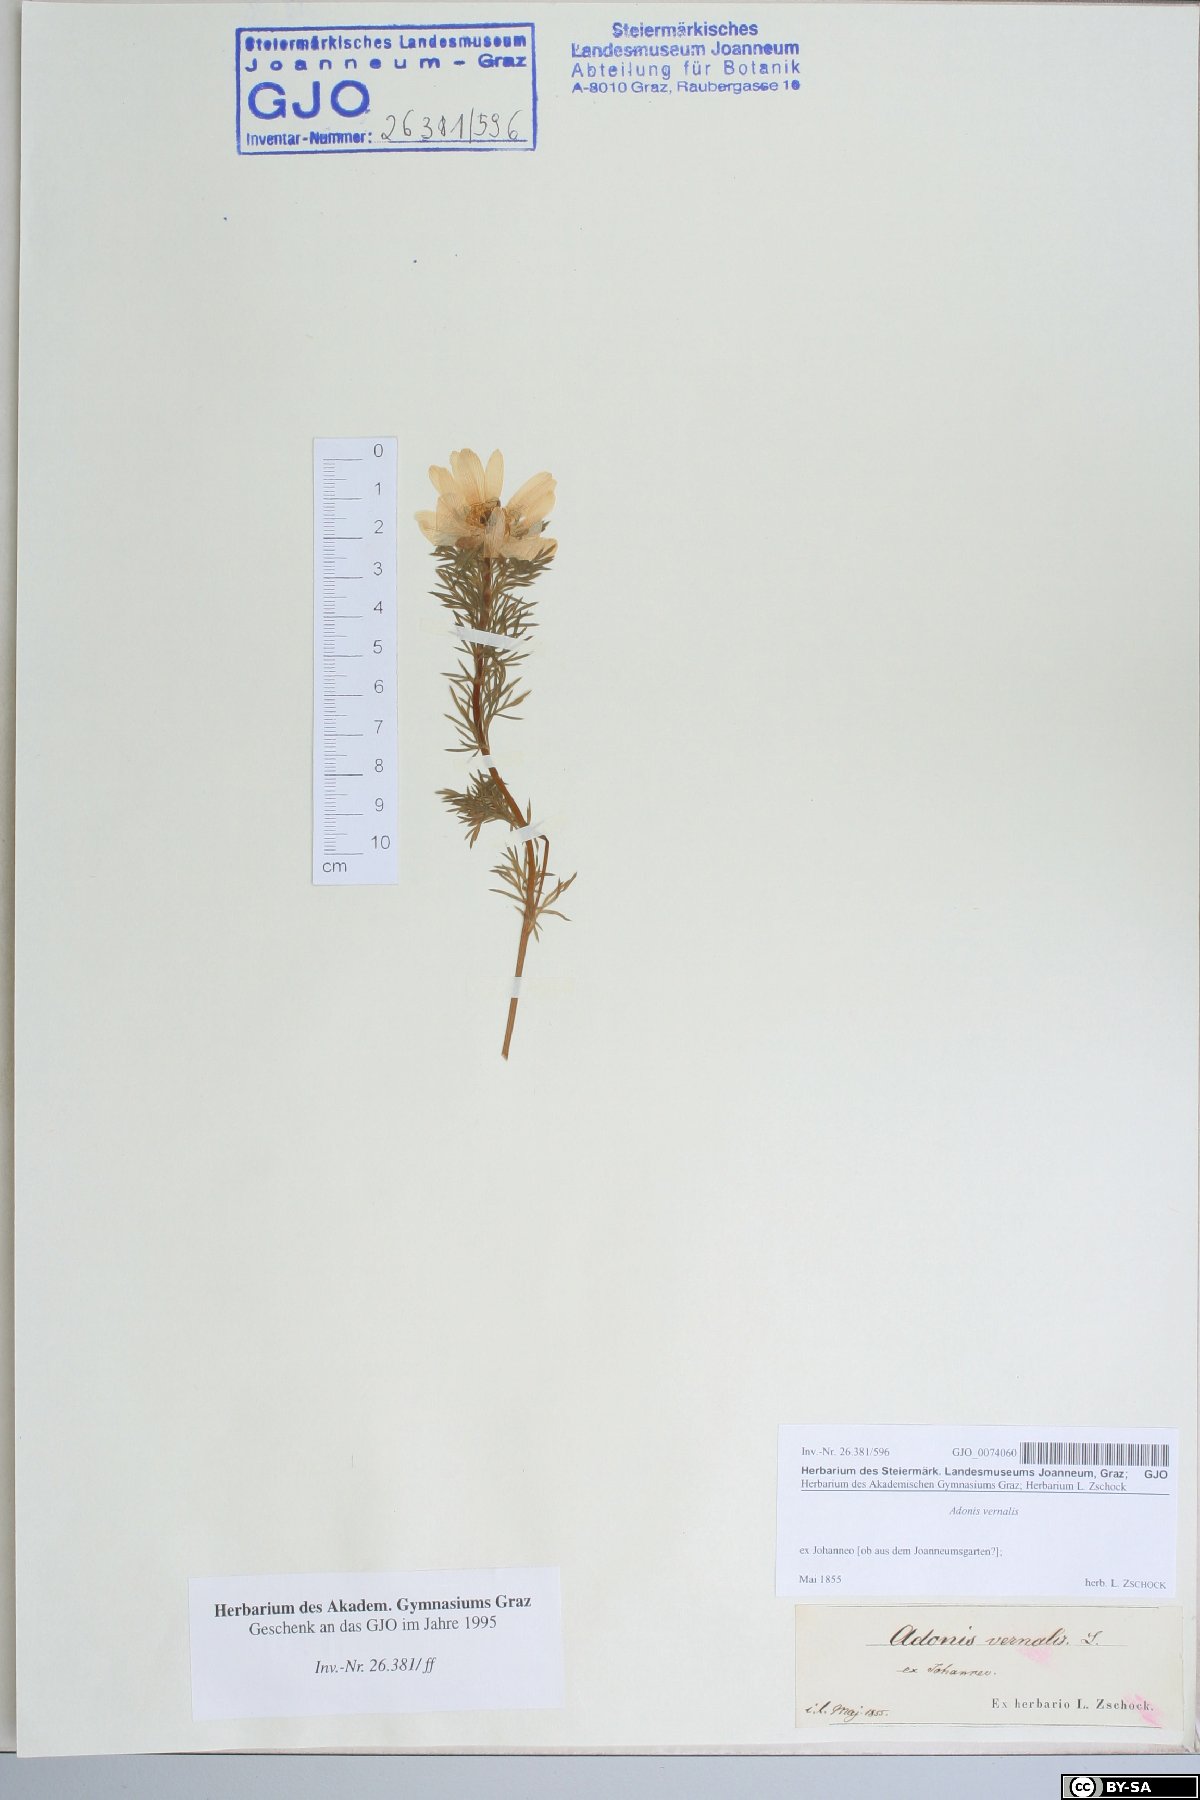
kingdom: Plantae
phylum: Tracheophyta
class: Magnoliopsida
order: Ranunculales
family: Ranunculaceae
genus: Adonis
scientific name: Adonis vernalis
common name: Yellow pheasants-eye
